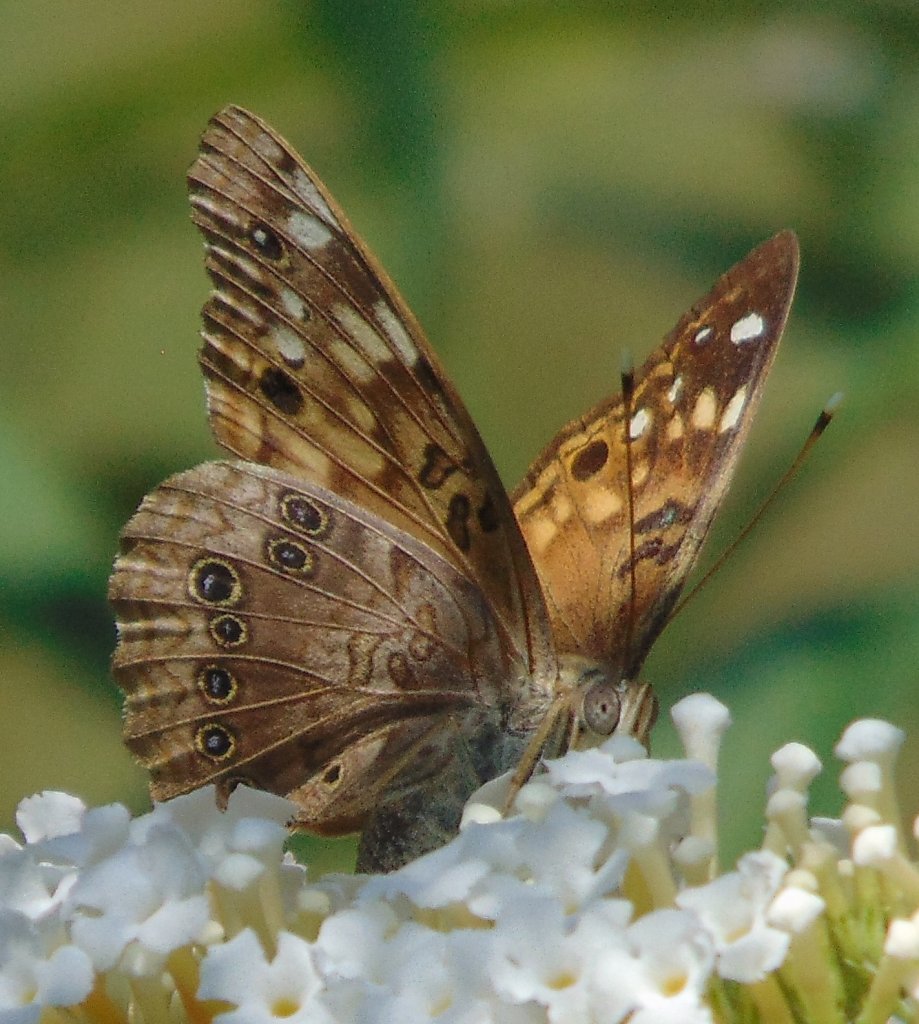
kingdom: Animalia
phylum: Arthropoda
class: Insecta
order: Lepidoptera
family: Nymphalidae
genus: Asterocampa
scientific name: Asterocampa celtis
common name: Hackberry Emperor
